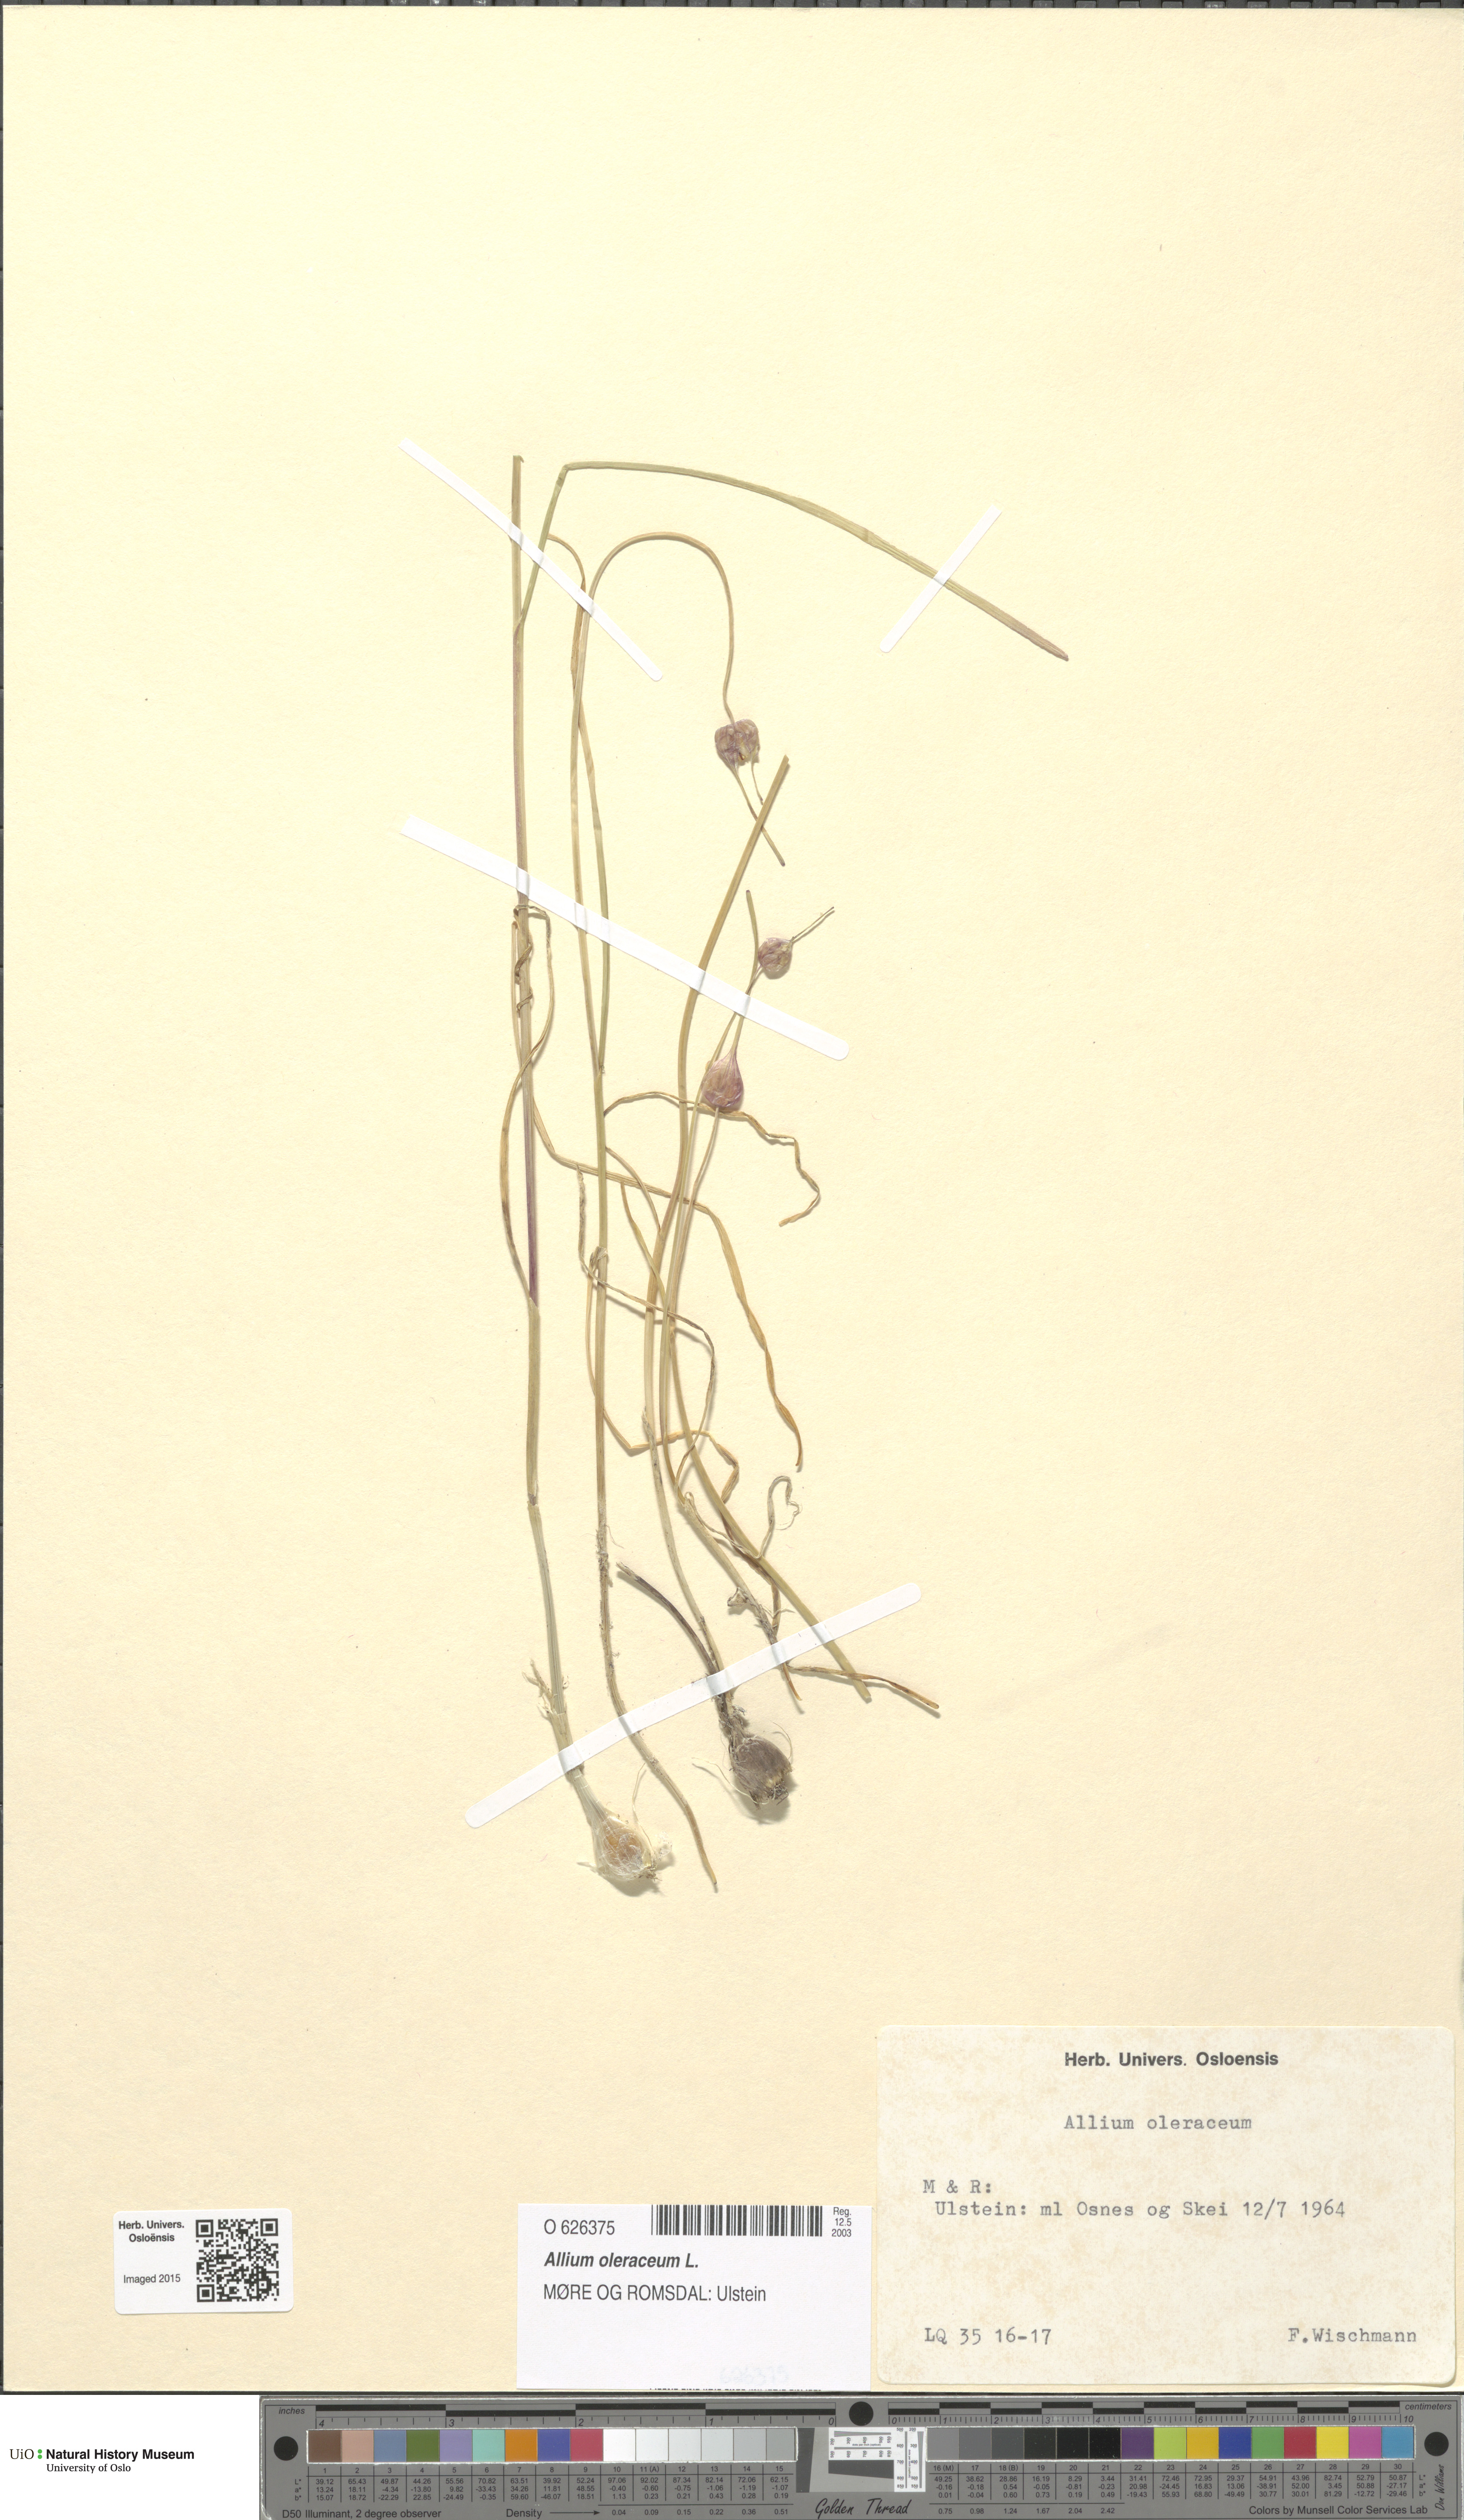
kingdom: Plantae
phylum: Tracheophyta
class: Liliopsida
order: Asparagales
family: Amaryllidaceae
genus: Allium
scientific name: Allium oleraceum
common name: Field garlic
